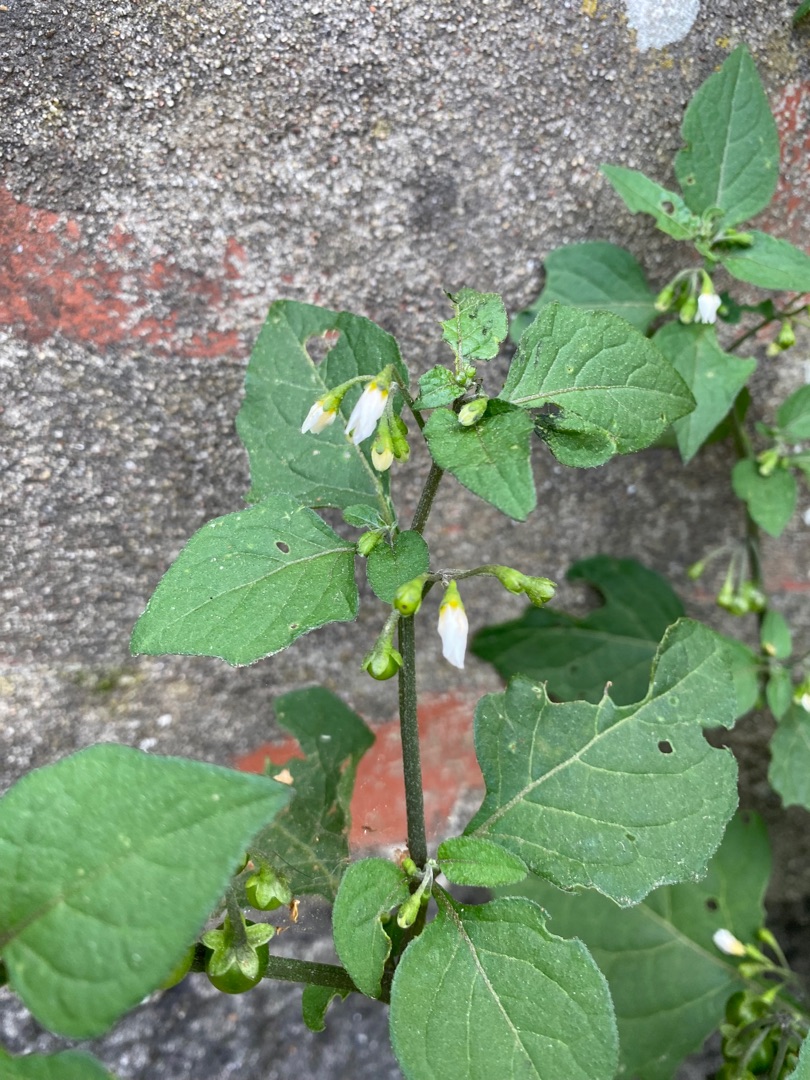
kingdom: Plantae
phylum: Tracheophyta
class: Magnoliopsida
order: Solanales
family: Solanaceae
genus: Solanum
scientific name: Solanum nigrum
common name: Sort natskygge
